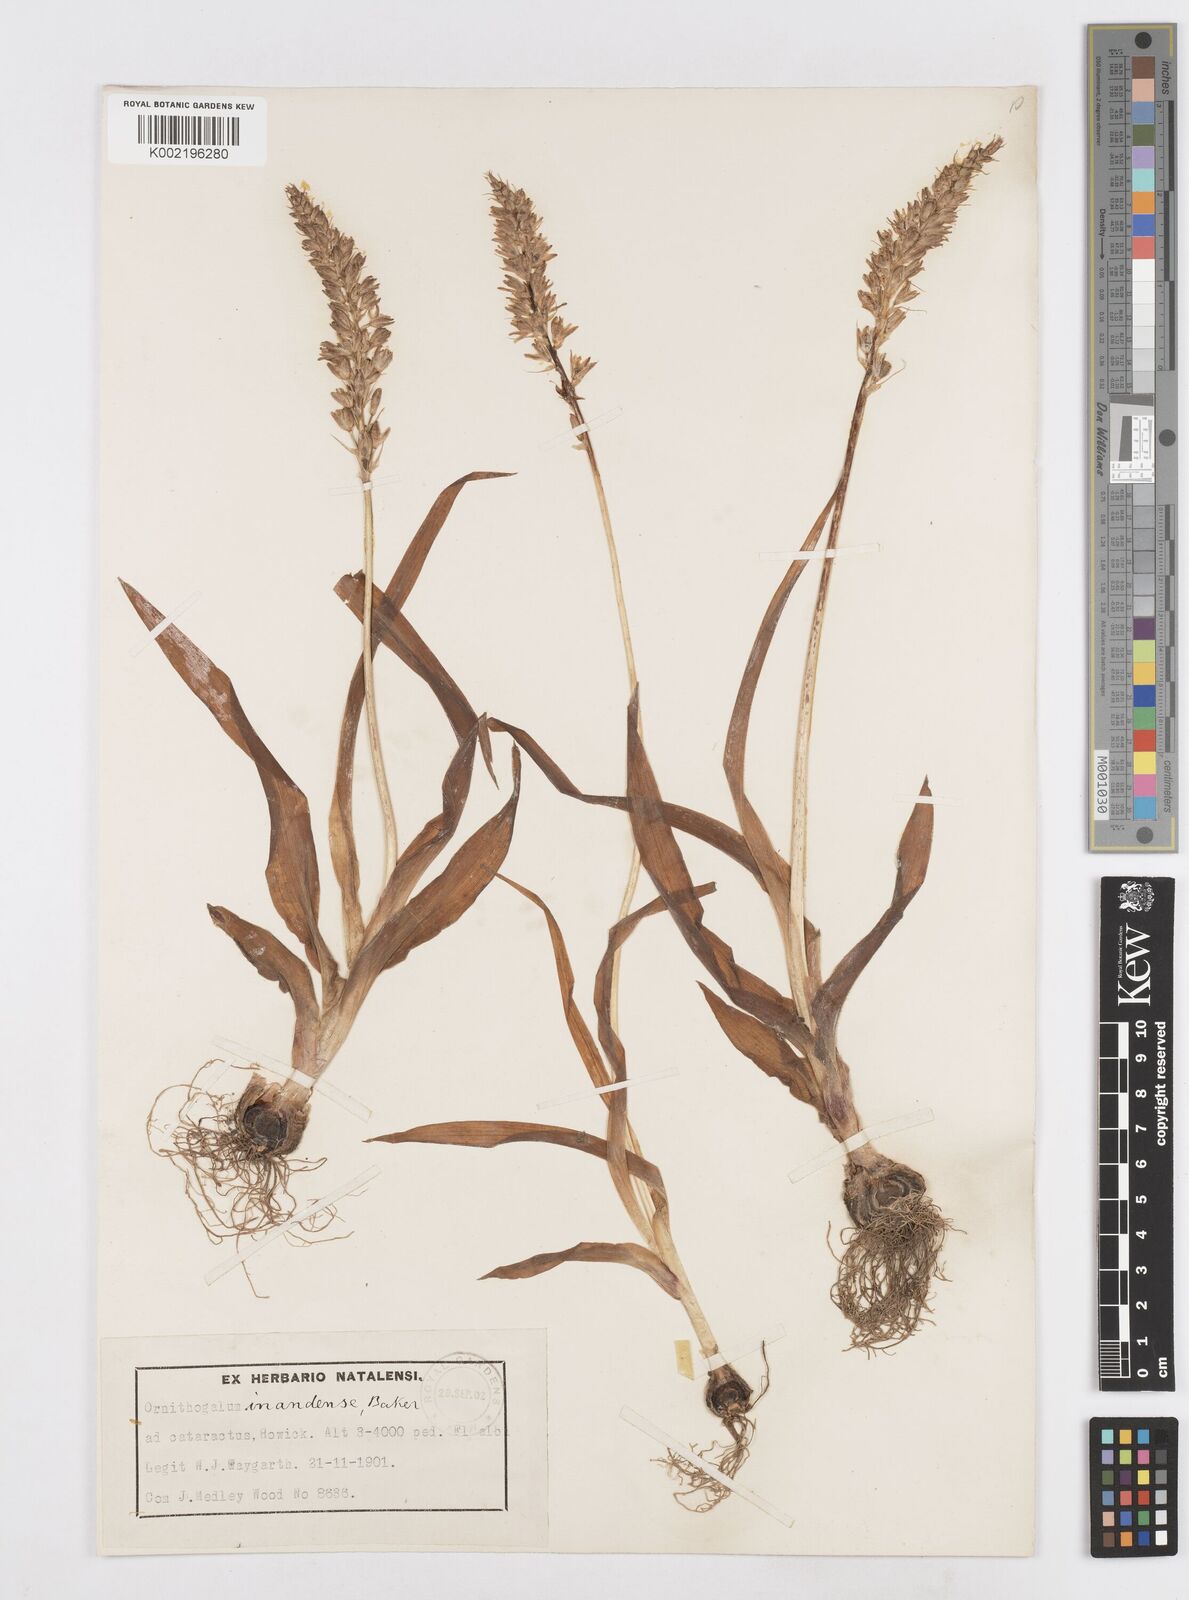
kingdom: Plantae
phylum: Tracheophyta
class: Liliopsida
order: Asparagales
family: Asparagaceae
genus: Ornithogalum
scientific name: Ornithogalum graminifolium
